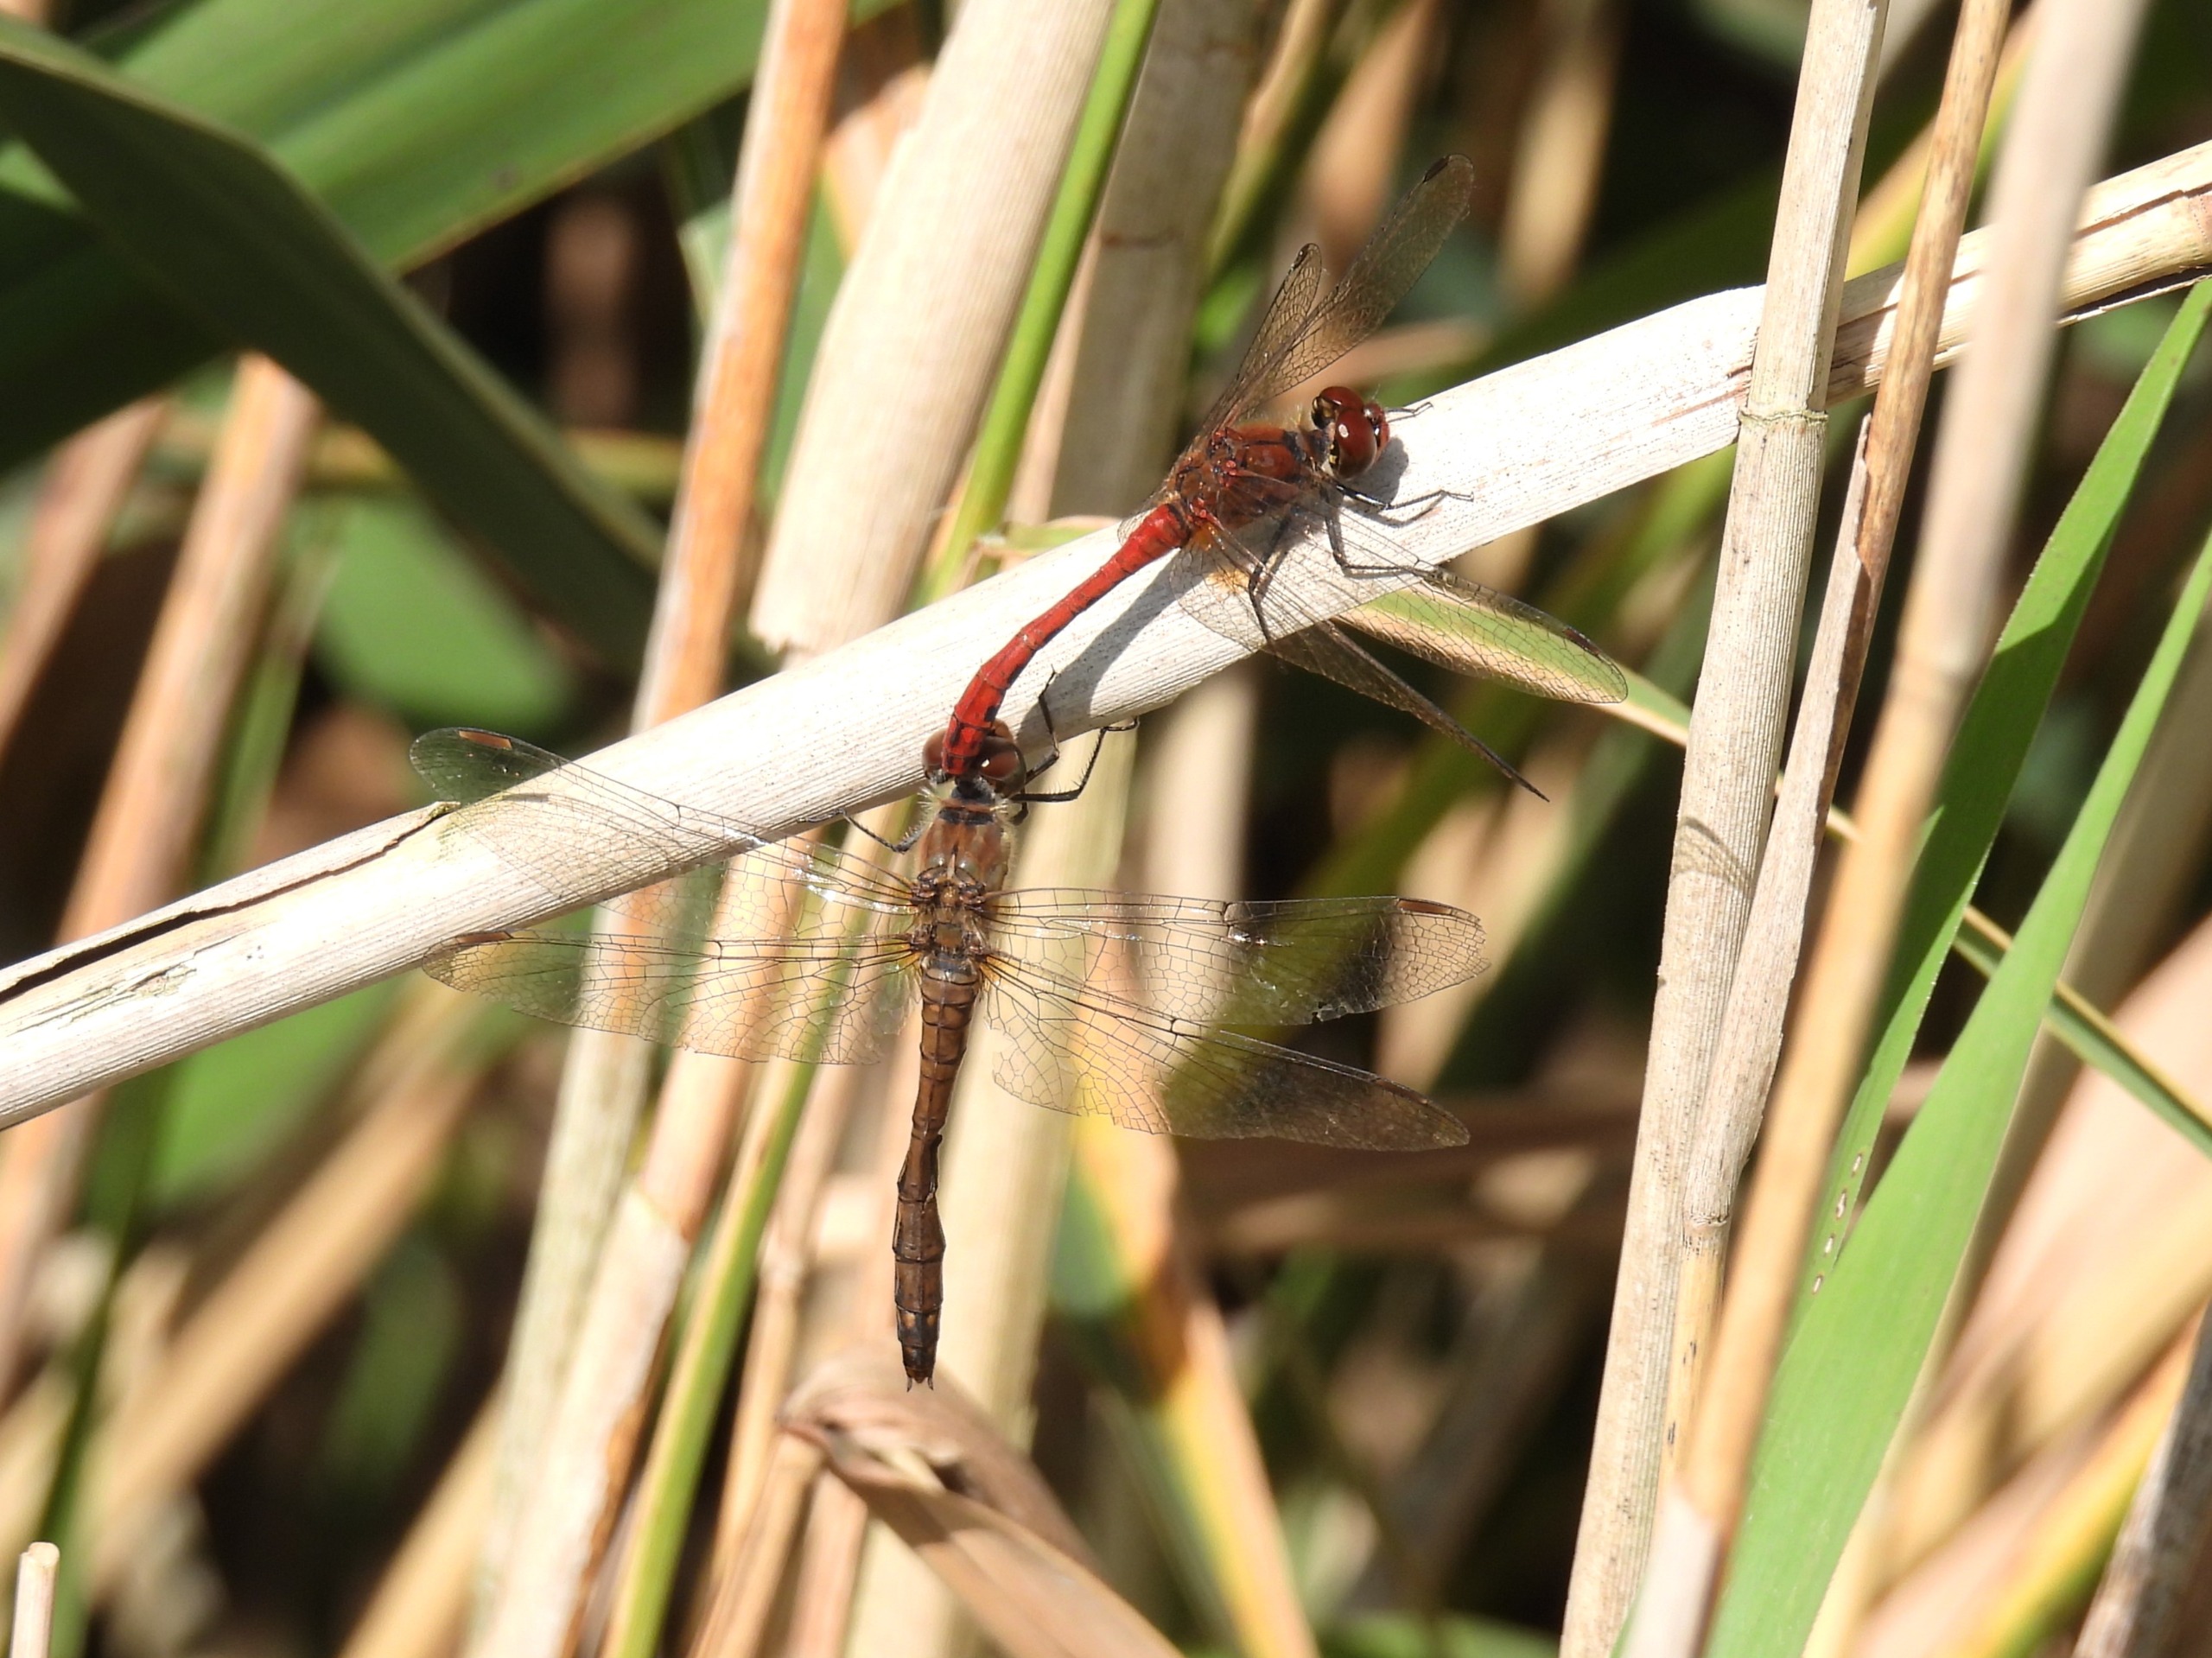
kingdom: Animalia
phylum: Arthropoda
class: Insecta
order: Odonata
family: Libellulidae
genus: Sympetrum
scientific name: Sympetrum sanguineum
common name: Blodrød hedelibel
